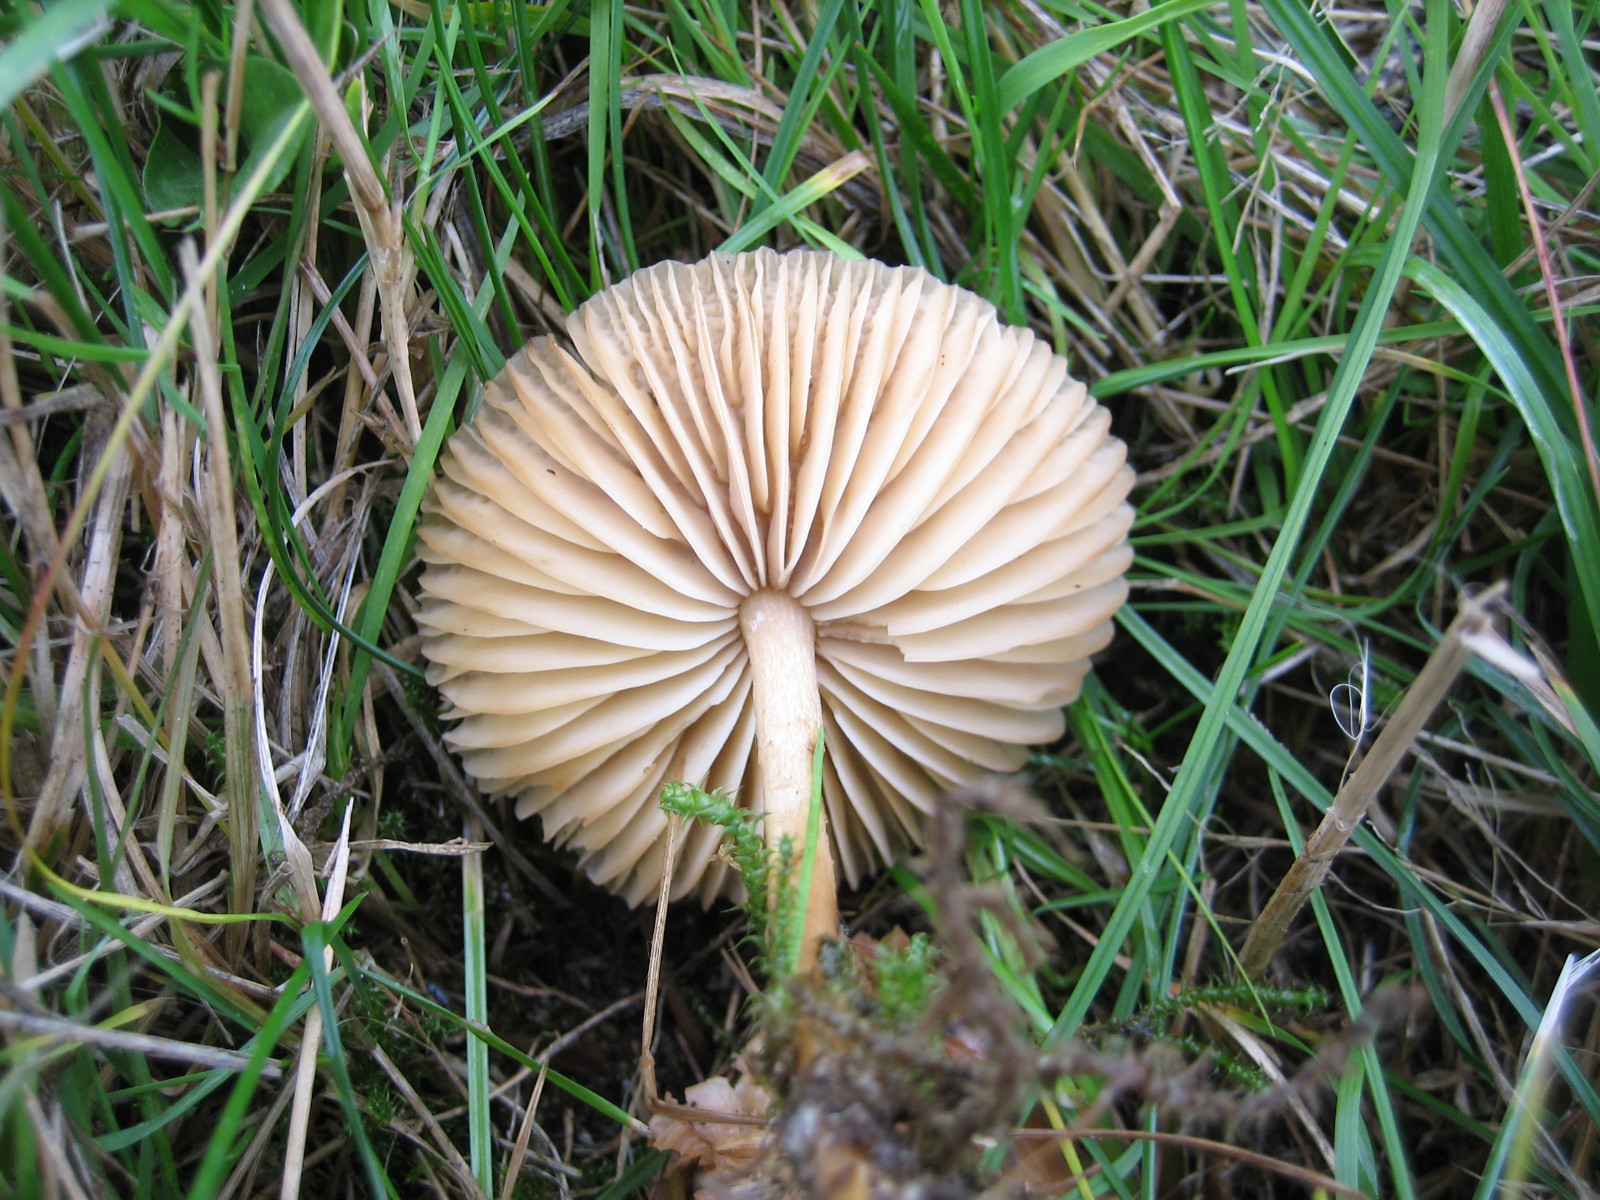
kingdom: Fungi
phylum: Basidiomycota
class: Agaricomycetes
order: Agaricales
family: Marasmiaceae
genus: Marasmius
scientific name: Marasmius oreades
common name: elledans-bruskhat
